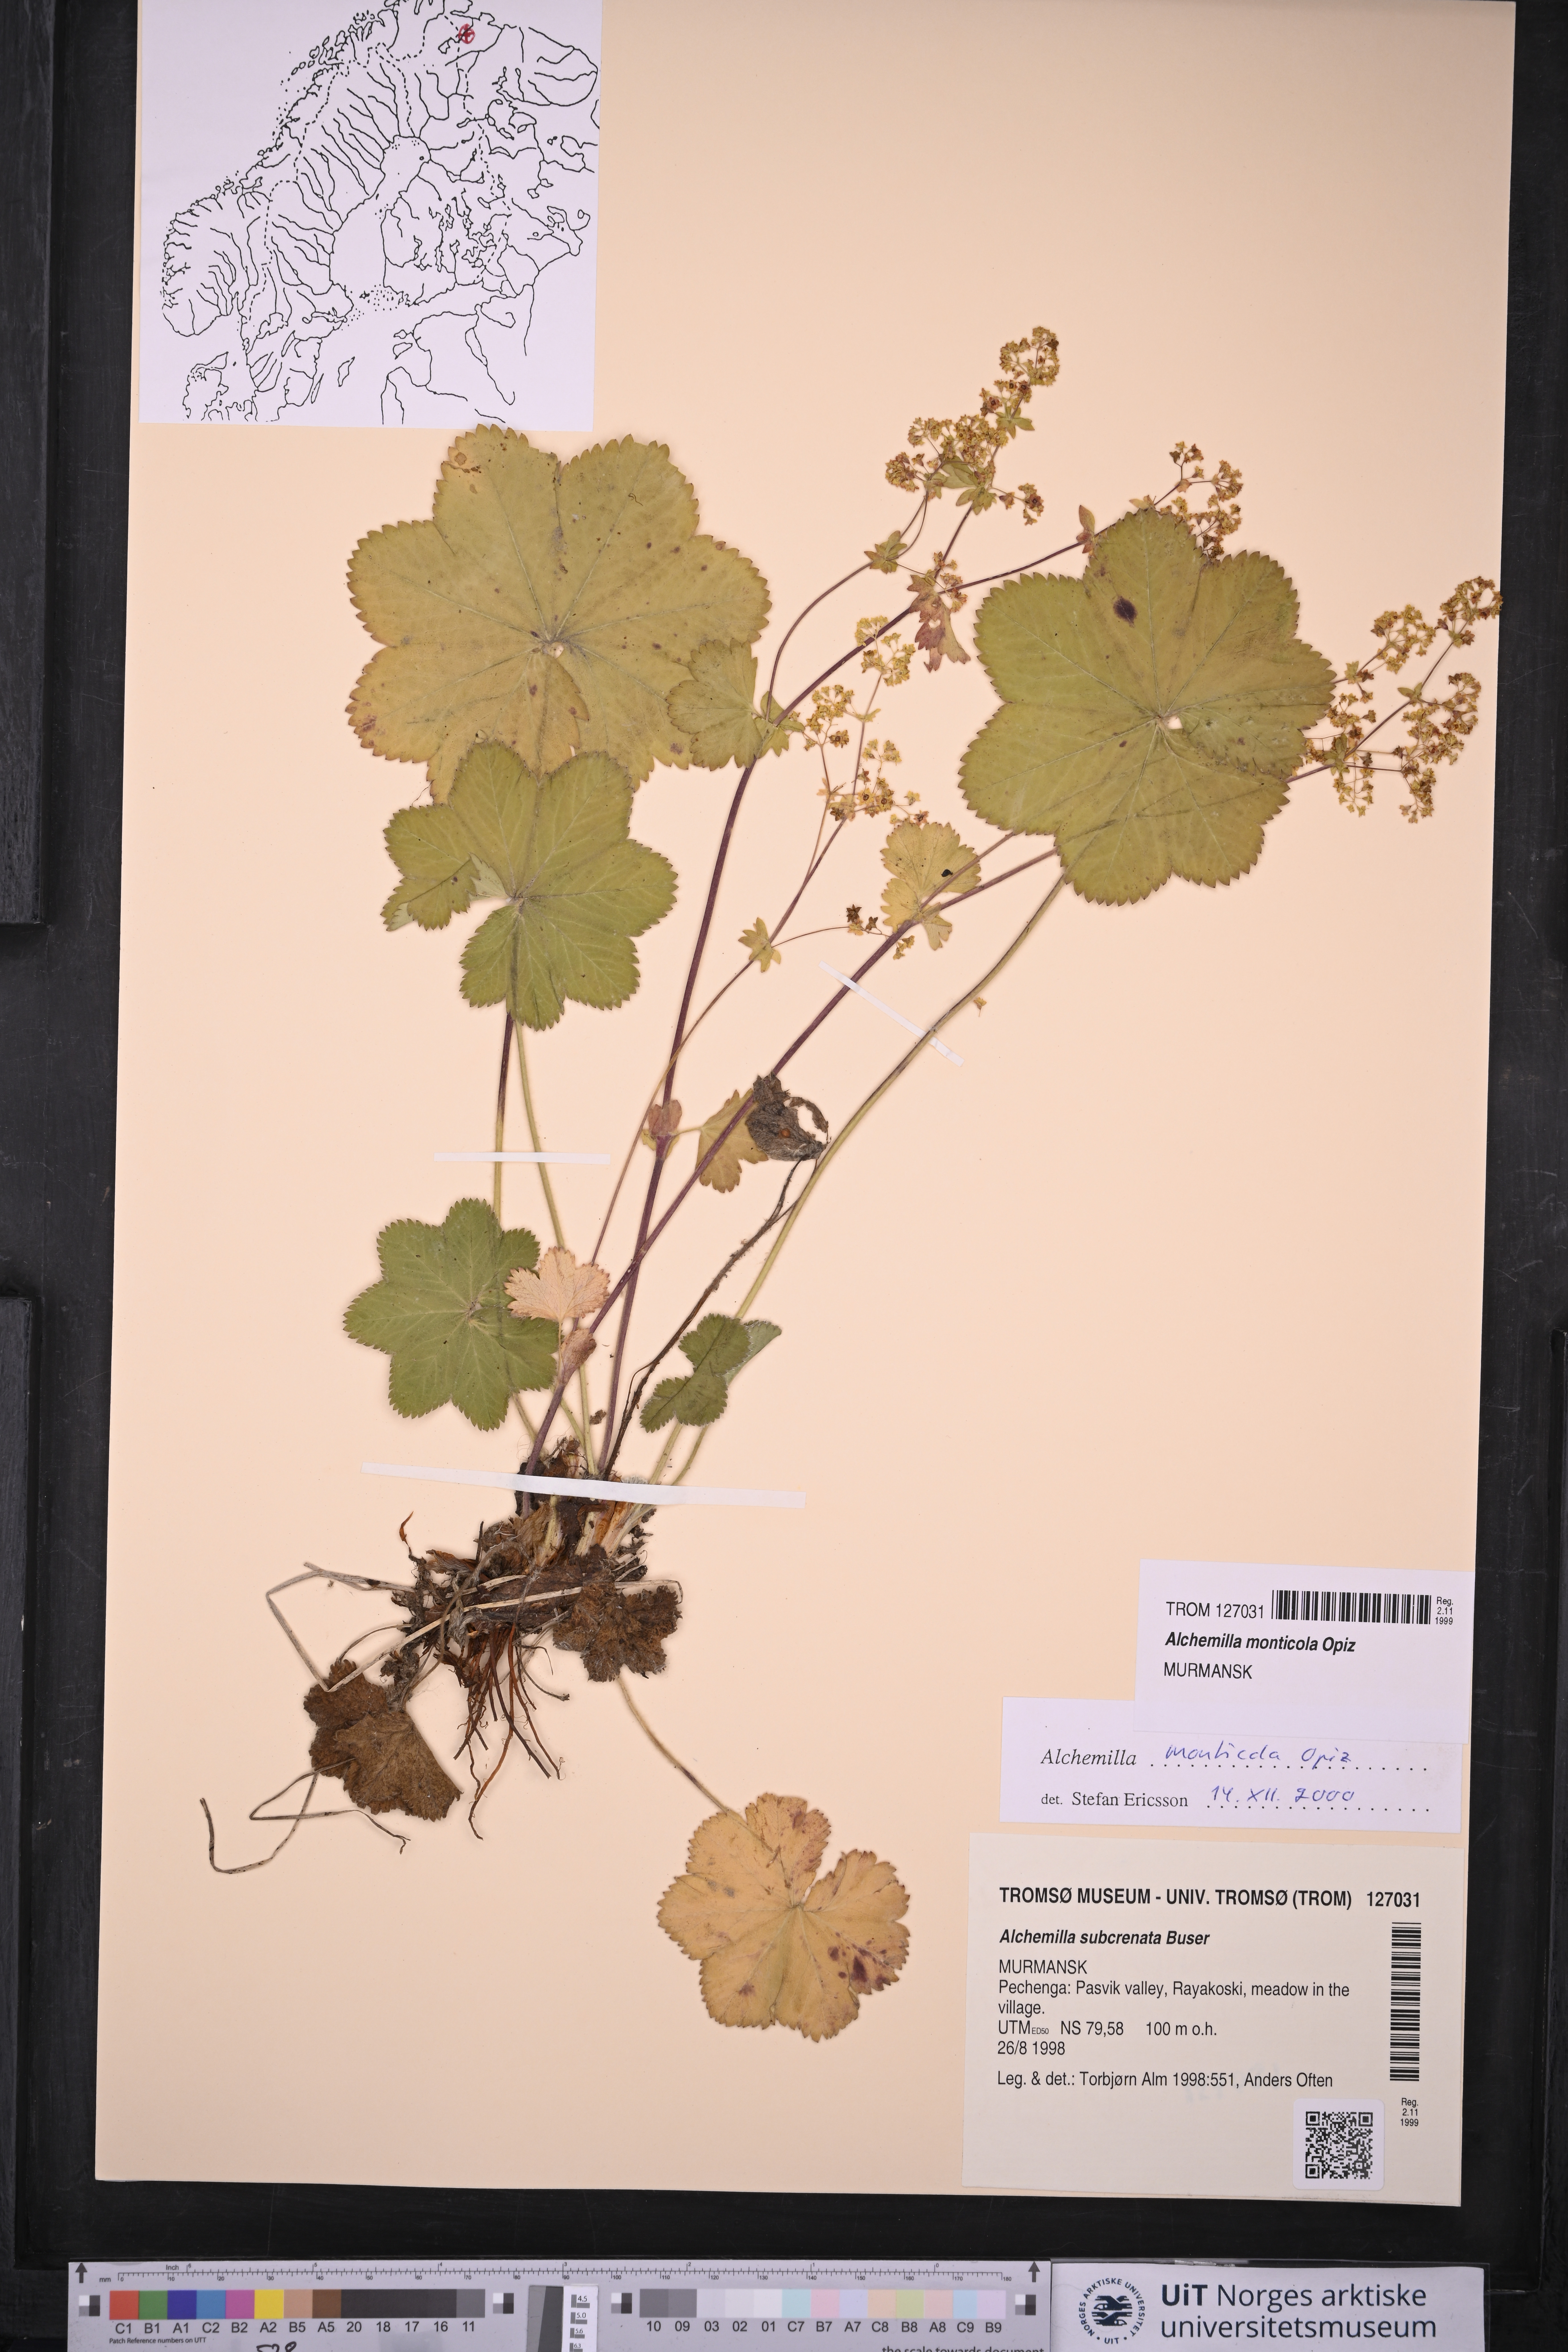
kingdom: Plantae
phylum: Tracheophyta
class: Magnoliopsida
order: Rosales
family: Rosaceae
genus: Alchemilla
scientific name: Alchemilla monticola
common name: Hairy lady's mantle
